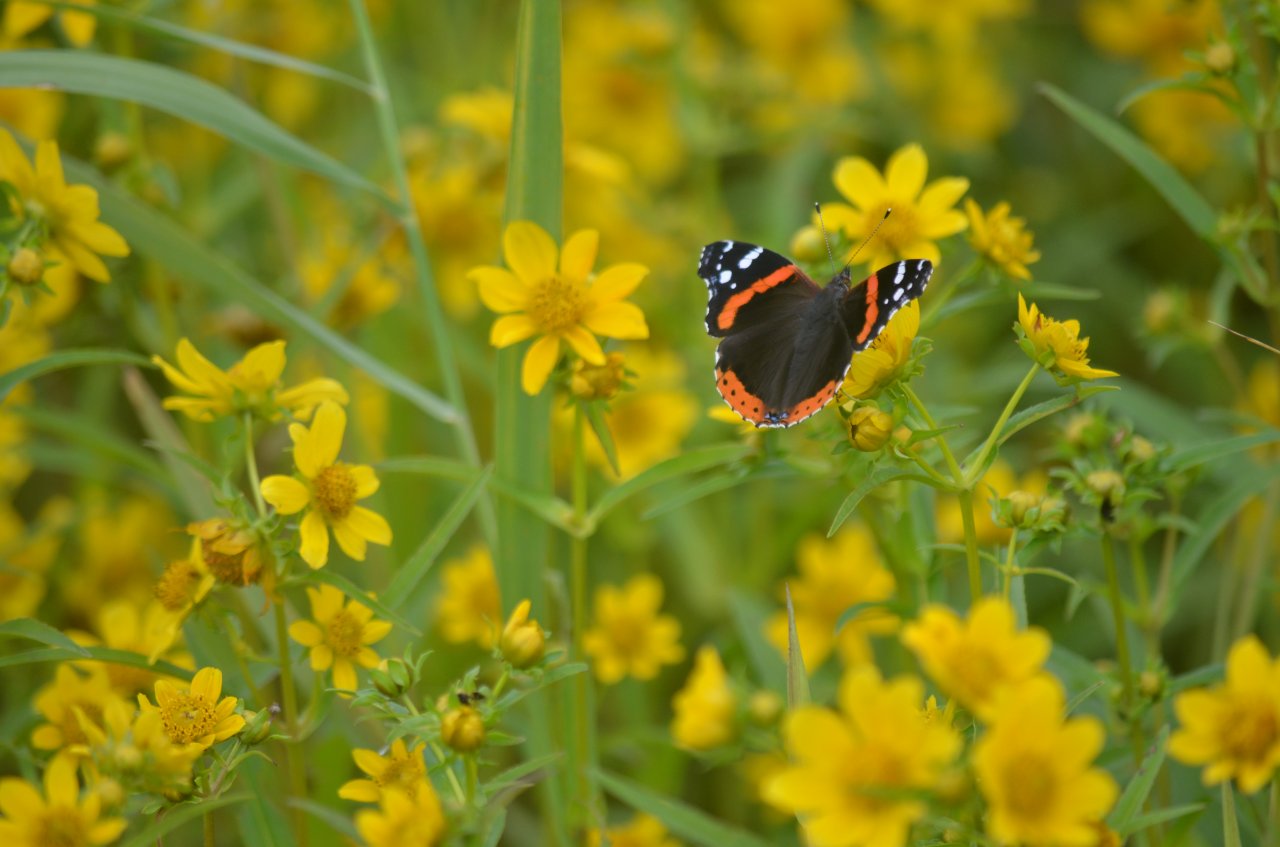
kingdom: Animalia
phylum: Arthropoda
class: Insecta
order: Lepidoptera
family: Nymphalidae
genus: Vanessa
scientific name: Vanessa atalanta
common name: Red Admiral
